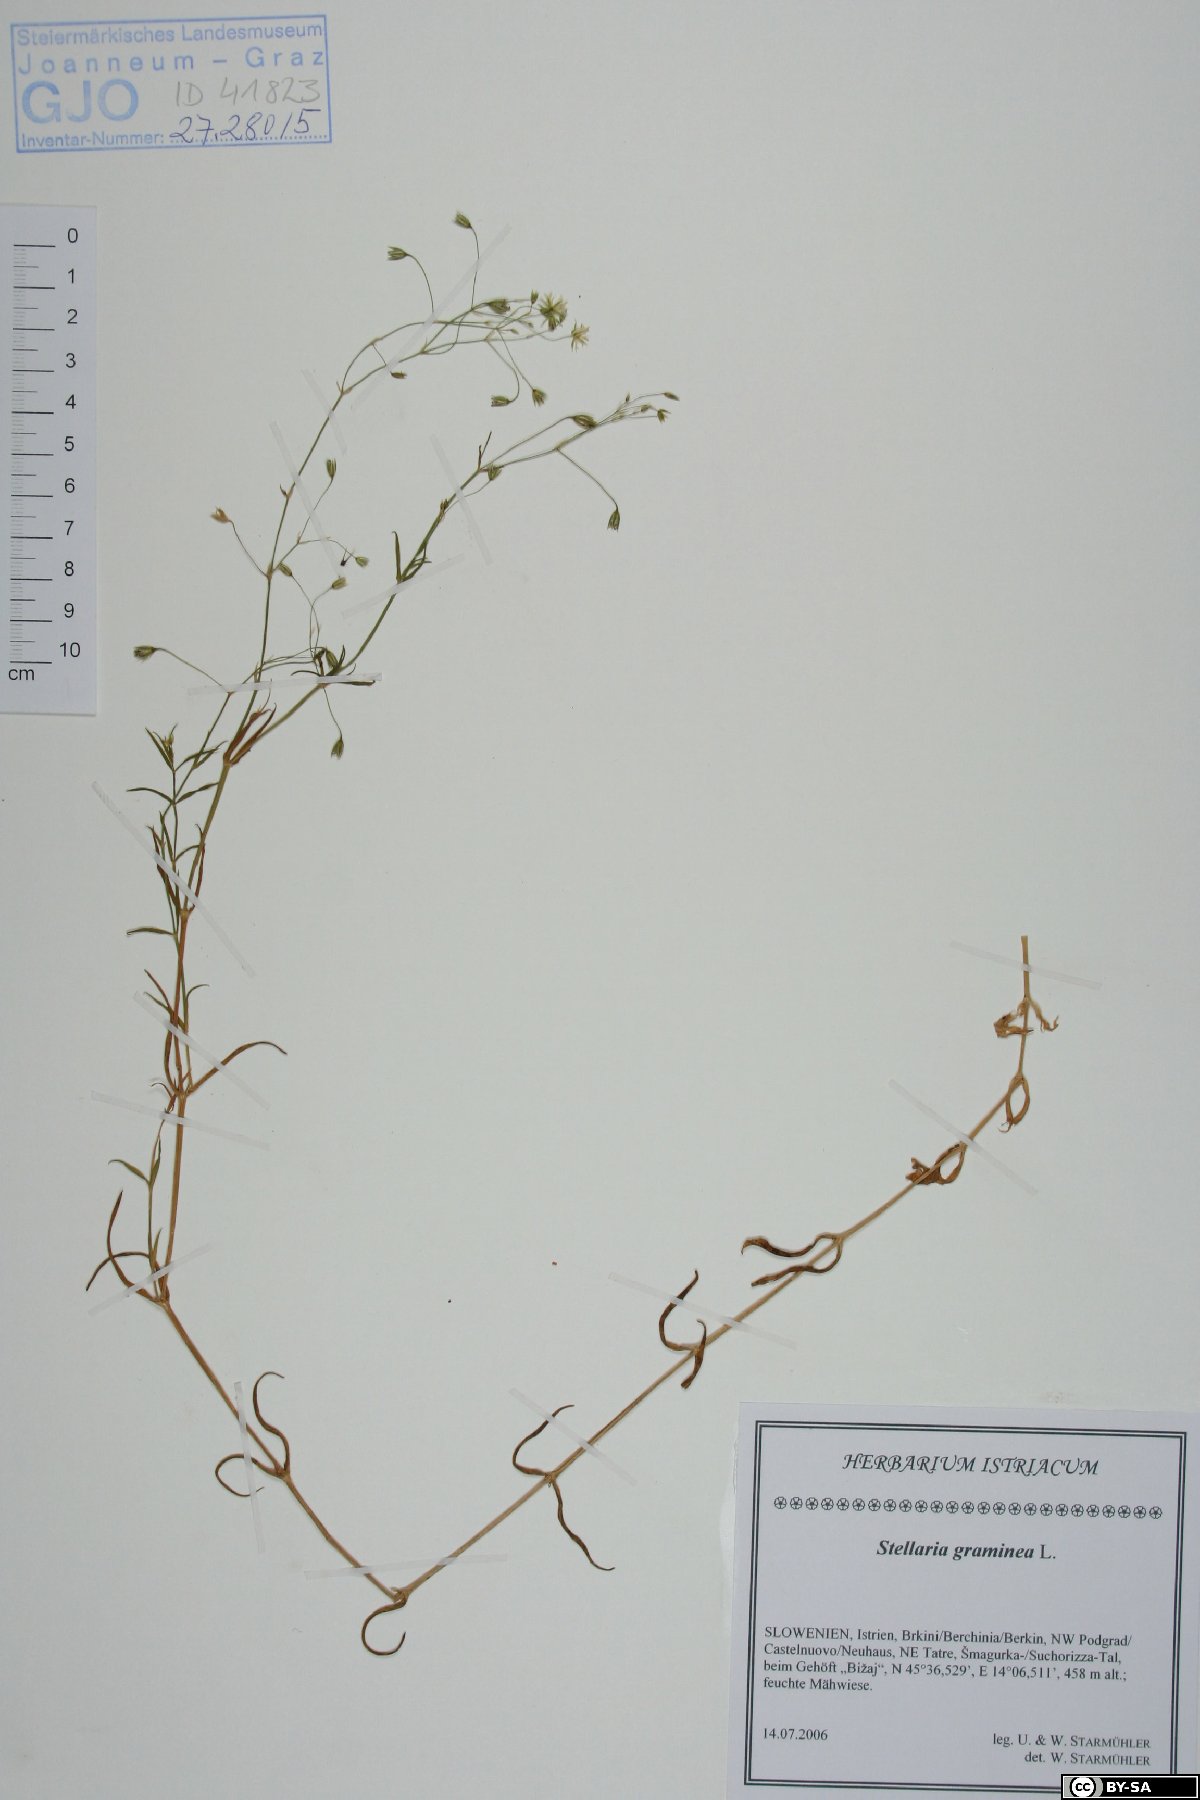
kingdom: Plantae
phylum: Tracheophyta
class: Magnoliopsida
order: Caryophyllales
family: Caryophyllaceae
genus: Stellaria
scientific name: Stellaria graminea
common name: Grass-like starwort
